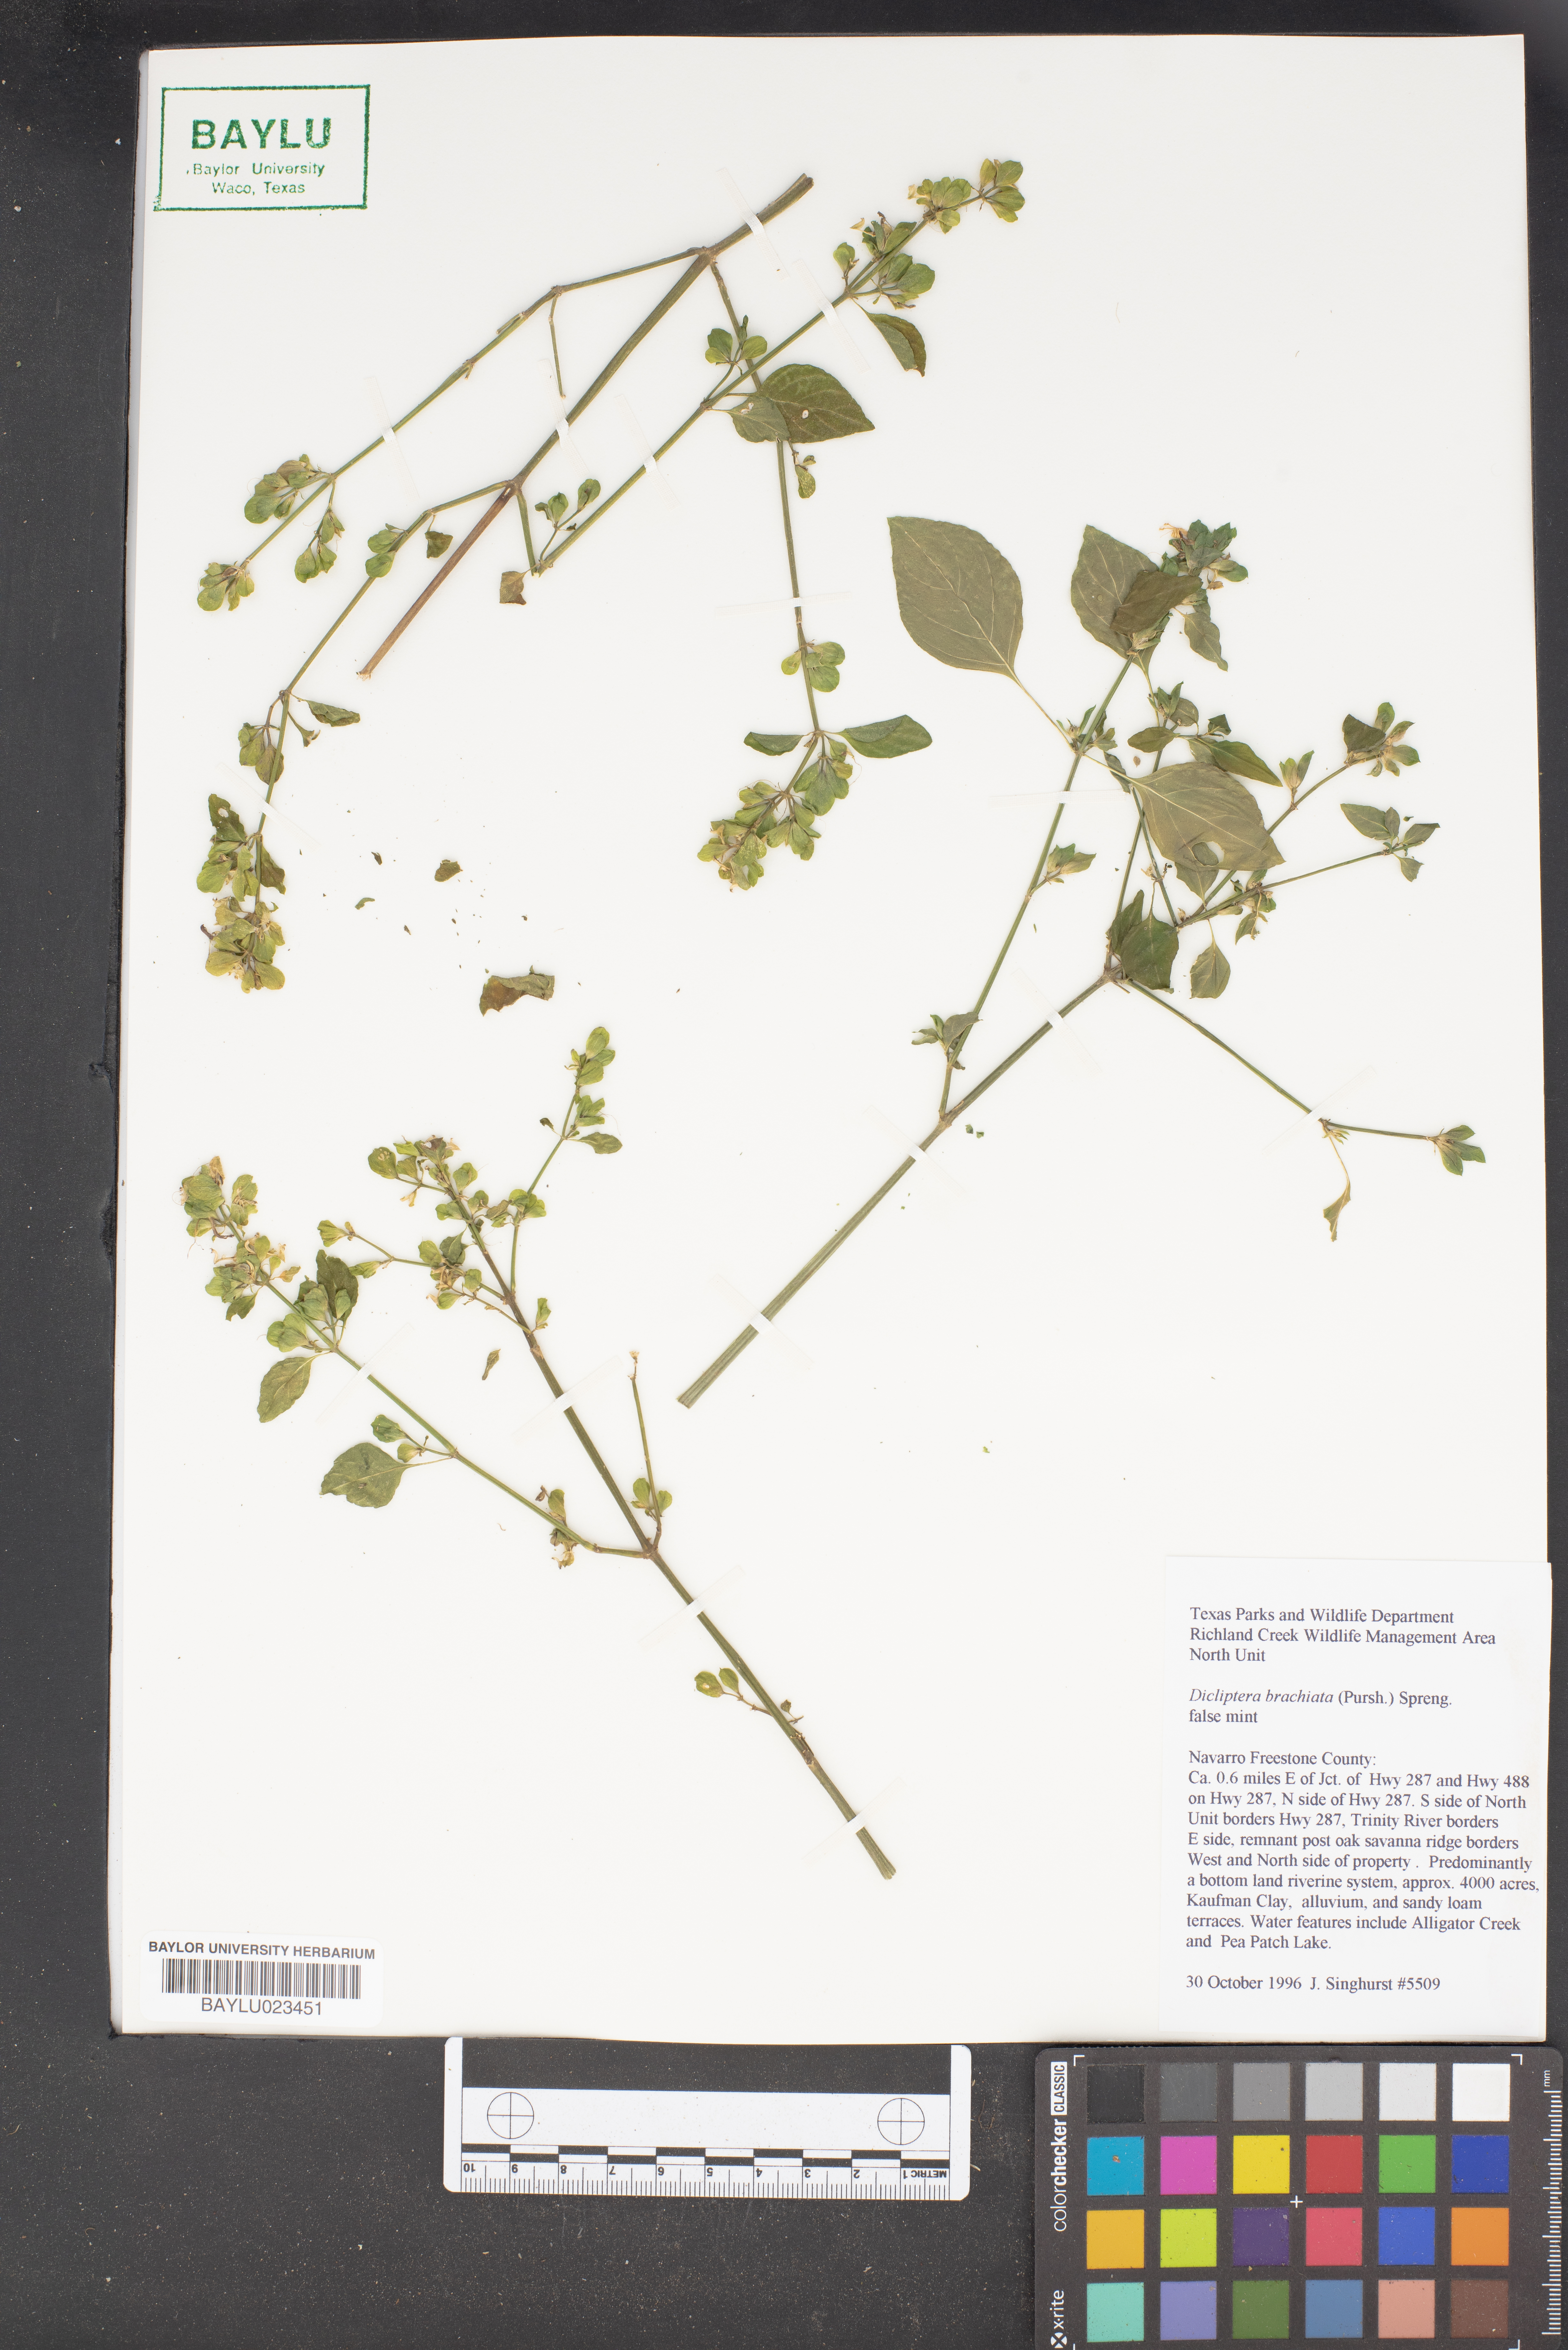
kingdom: Plantae
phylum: Tracheophyta
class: Magnoliopsida
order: Lamiales
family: Acanthaceae
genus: Dicliptera
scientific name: Dicliptera brachiata
